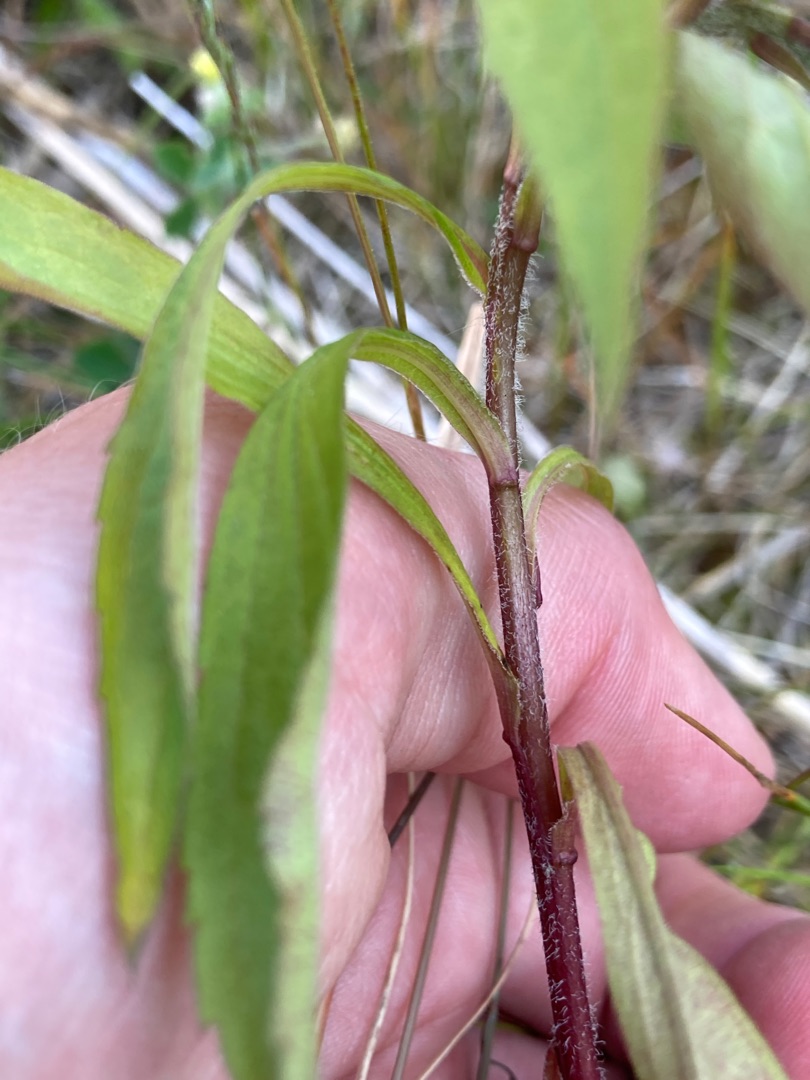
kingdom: Plantae
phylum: Tracheophyta
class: Magnoliopsida
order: Asterales
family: Asteraceae
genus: Solidago
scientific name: Solidago canadensis
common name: Kanadisk gyldenris
